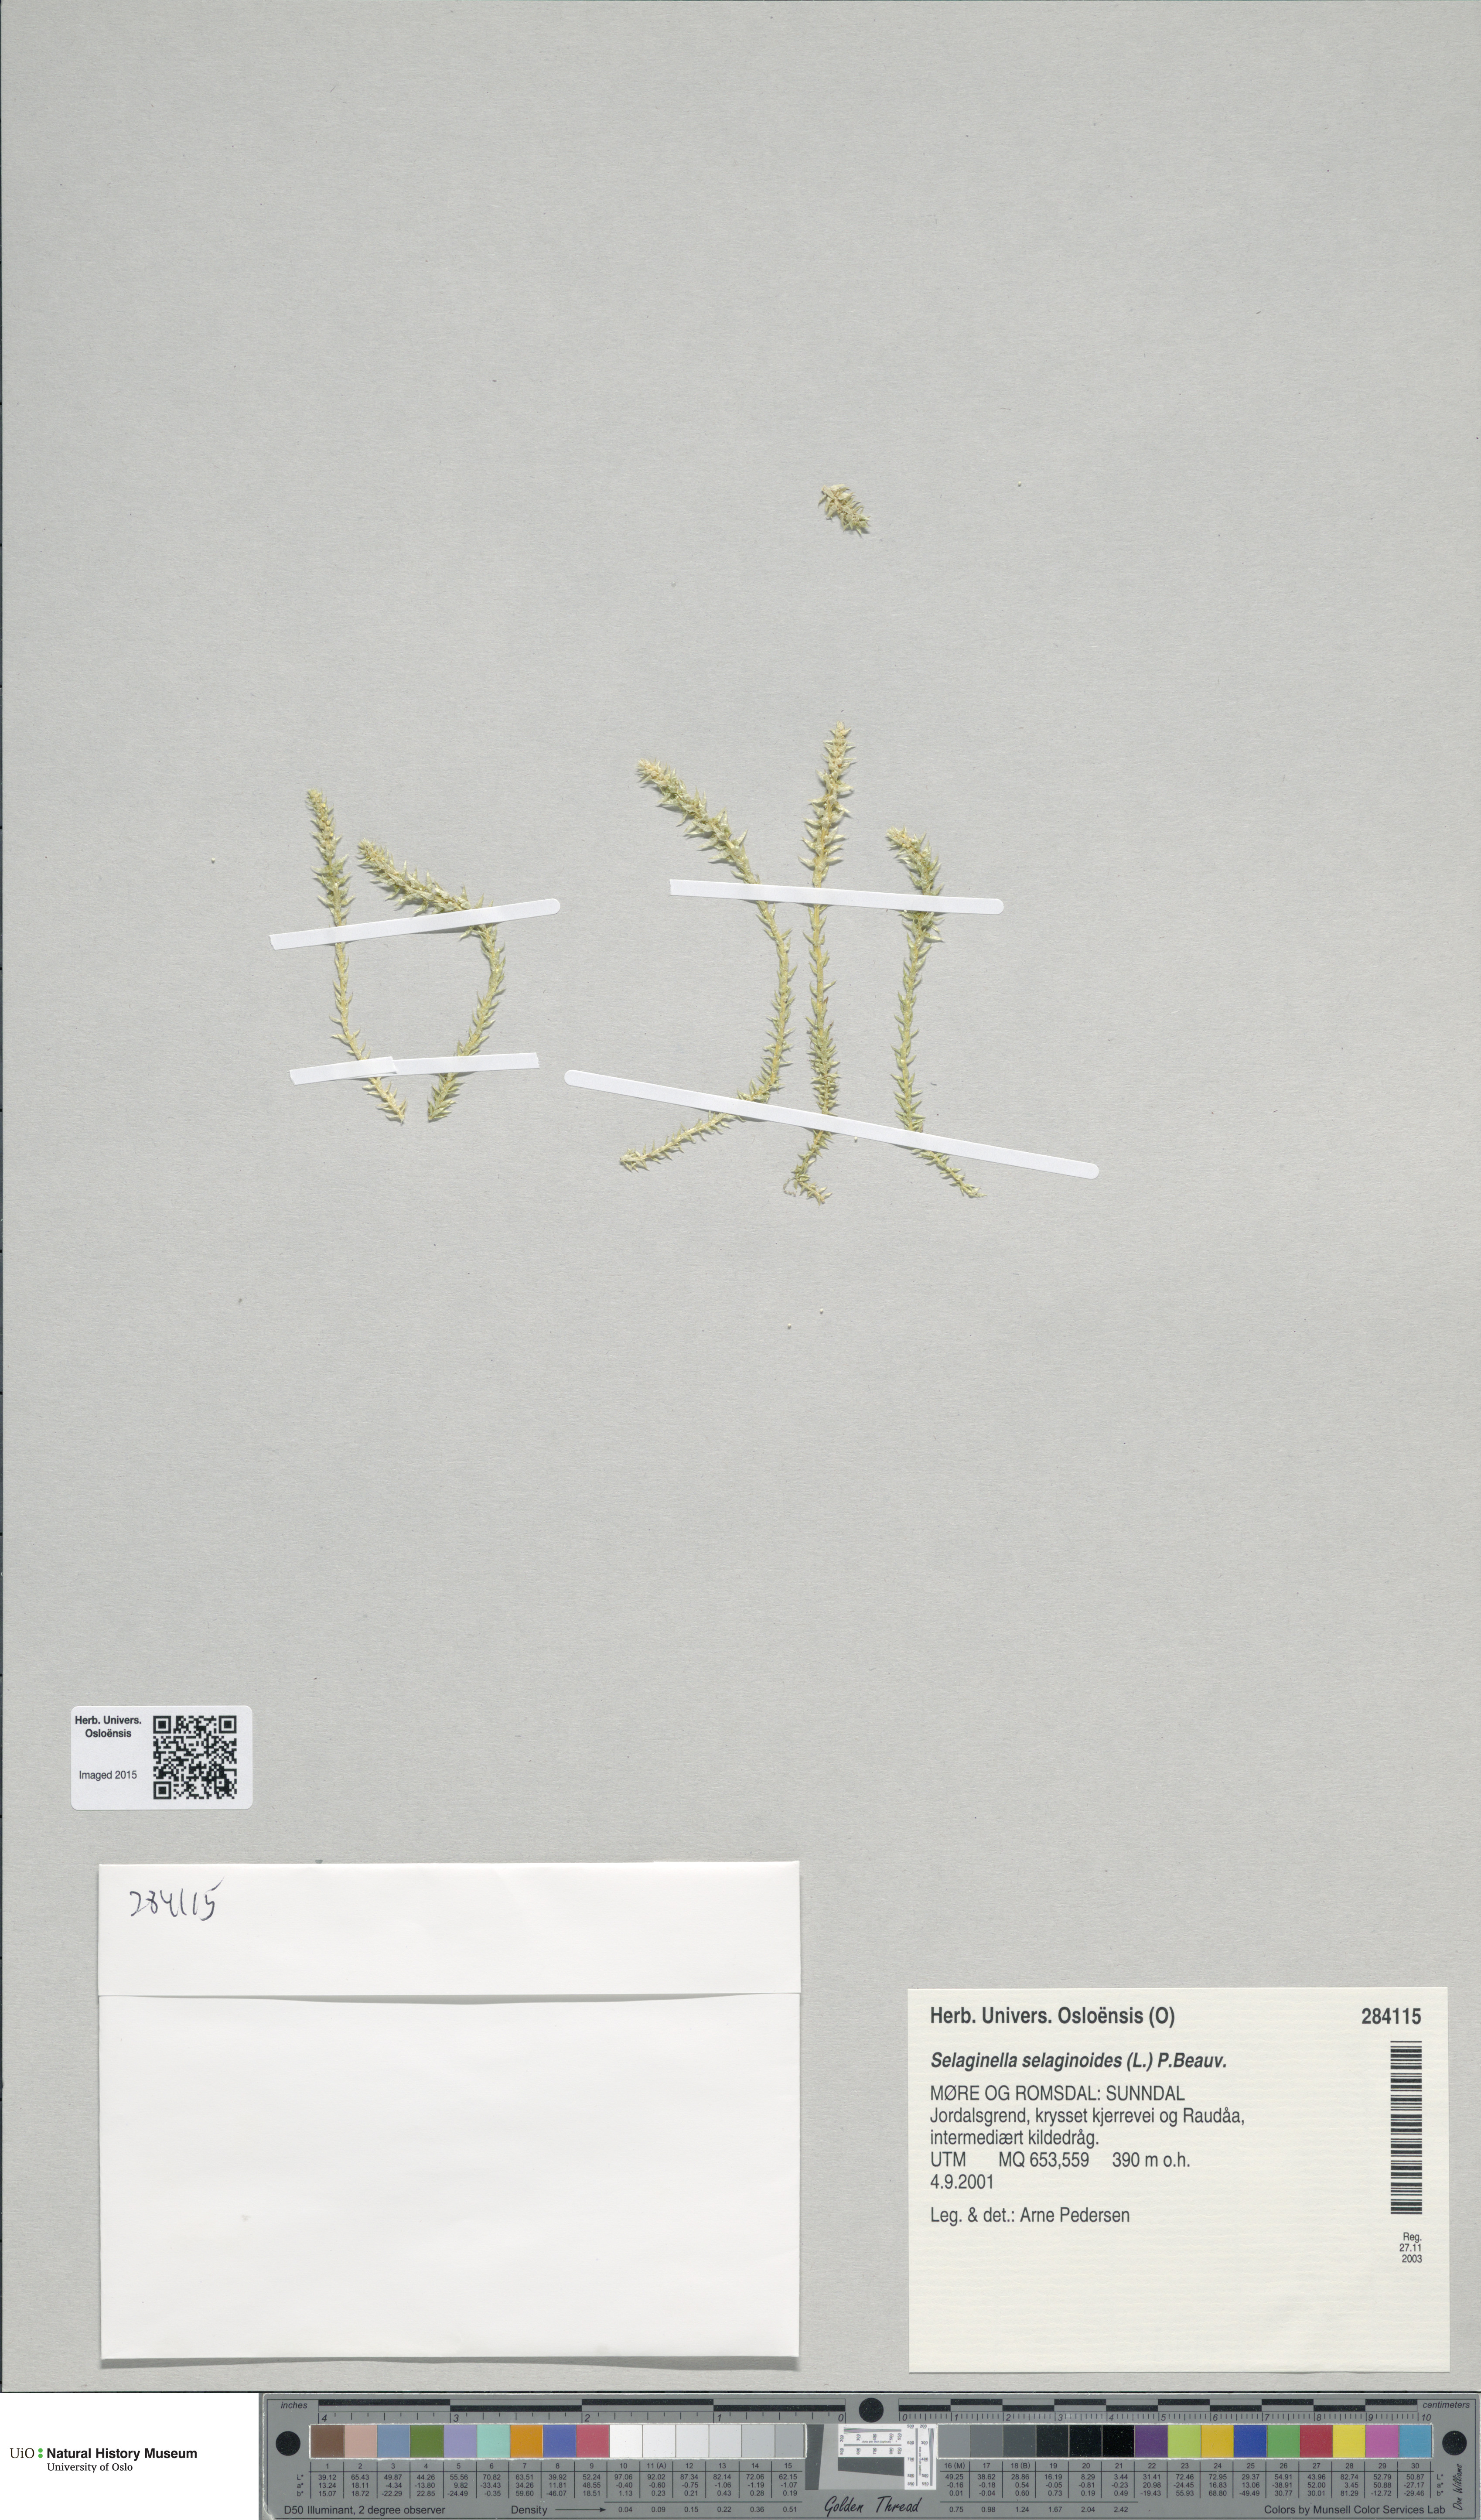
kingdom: Plantae
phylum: Tracheophyta
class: Lycopodiopsida
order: Selaginellales
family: Selaginellaceae
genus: Selaginella
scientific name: Selaginella selaginoides
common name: Prickly mountain-moss
